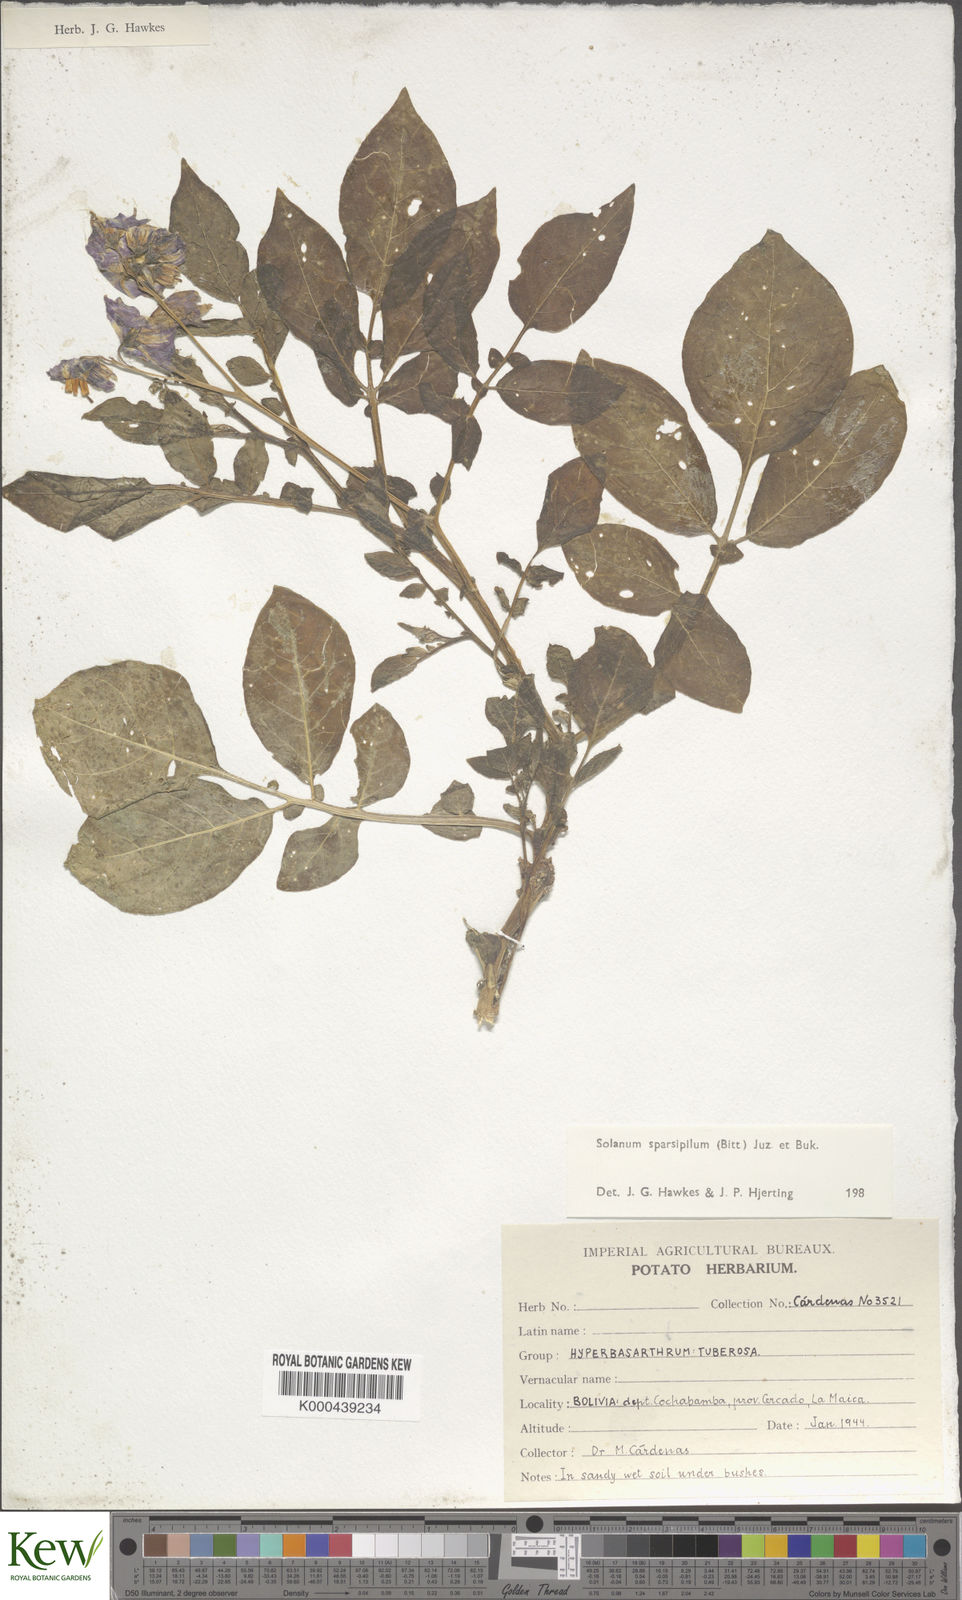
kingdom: Plantae
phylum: Tracheophyta
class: Magnoliopsida
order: Solanales
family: Solanaceae
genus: Solanum
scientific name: Solanum brevicaule
